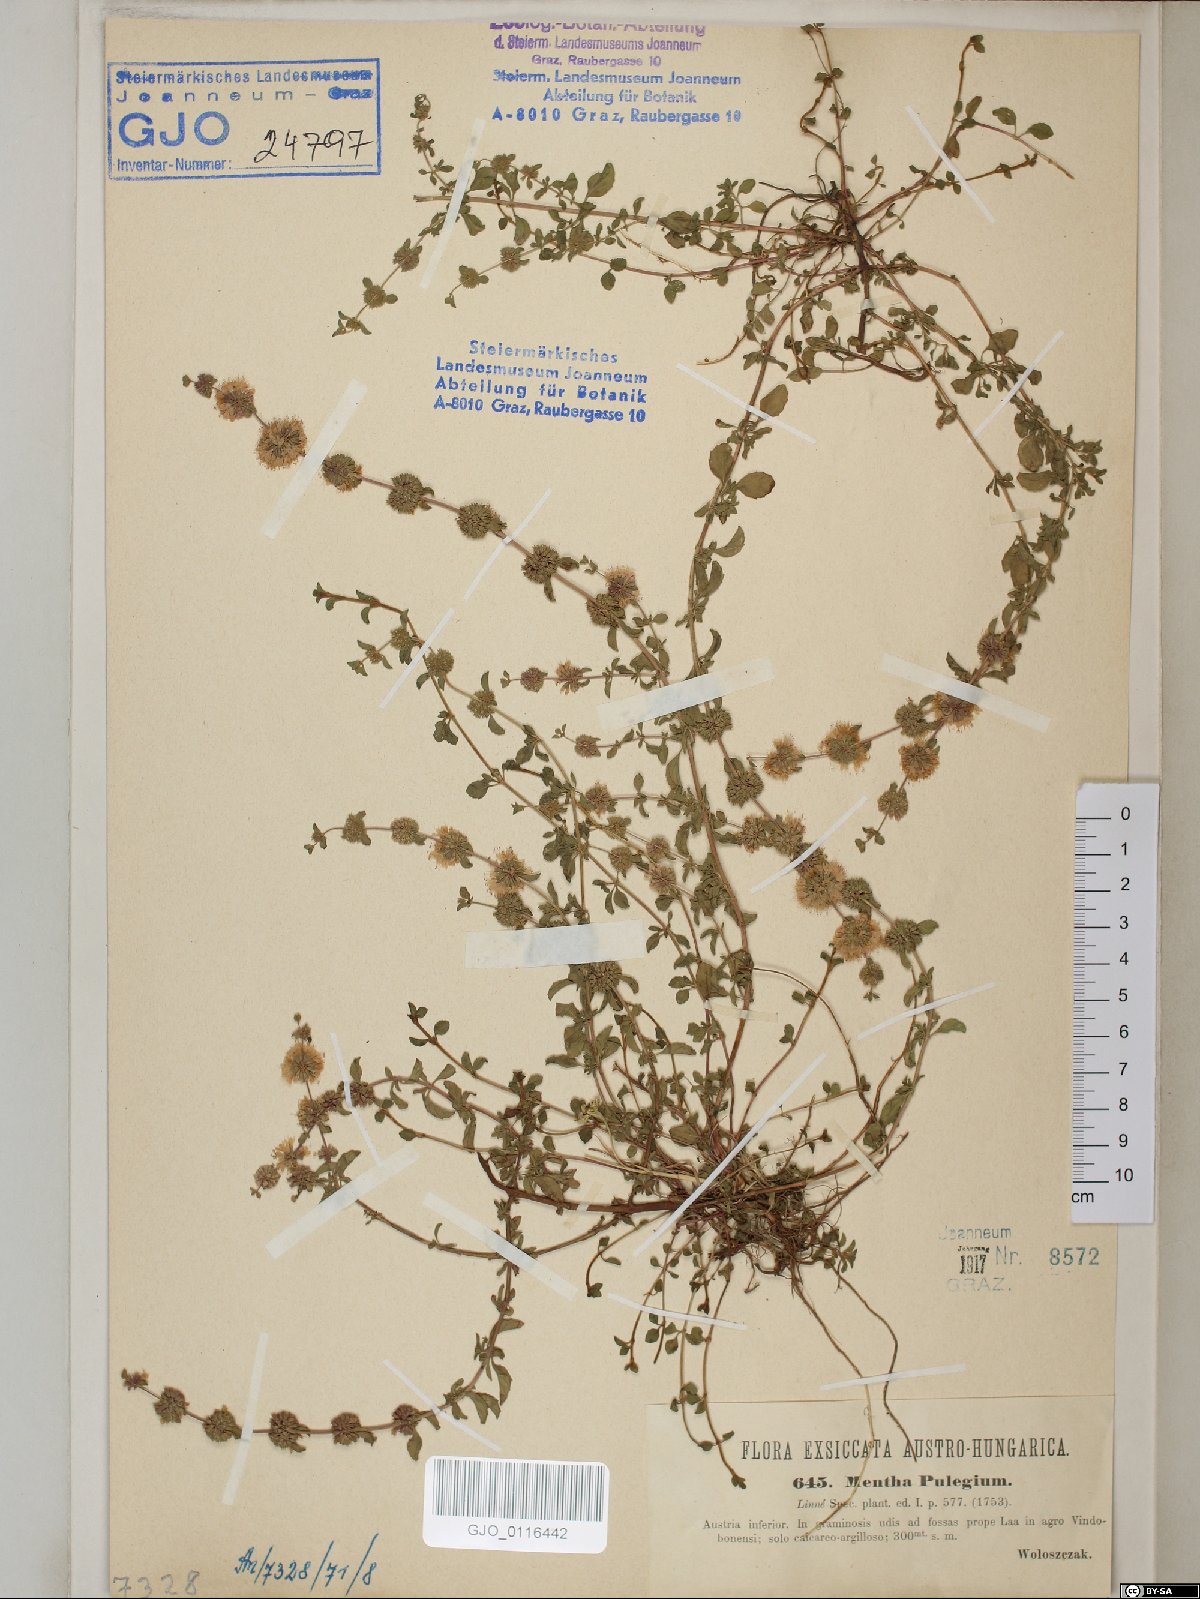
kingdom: Plantae
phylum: Tracheophyta
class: Magnoliopsida
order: Lamiales
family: Lamiaceae
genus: Mentha
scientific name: Mentha pulegium
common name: Pennyroyal
